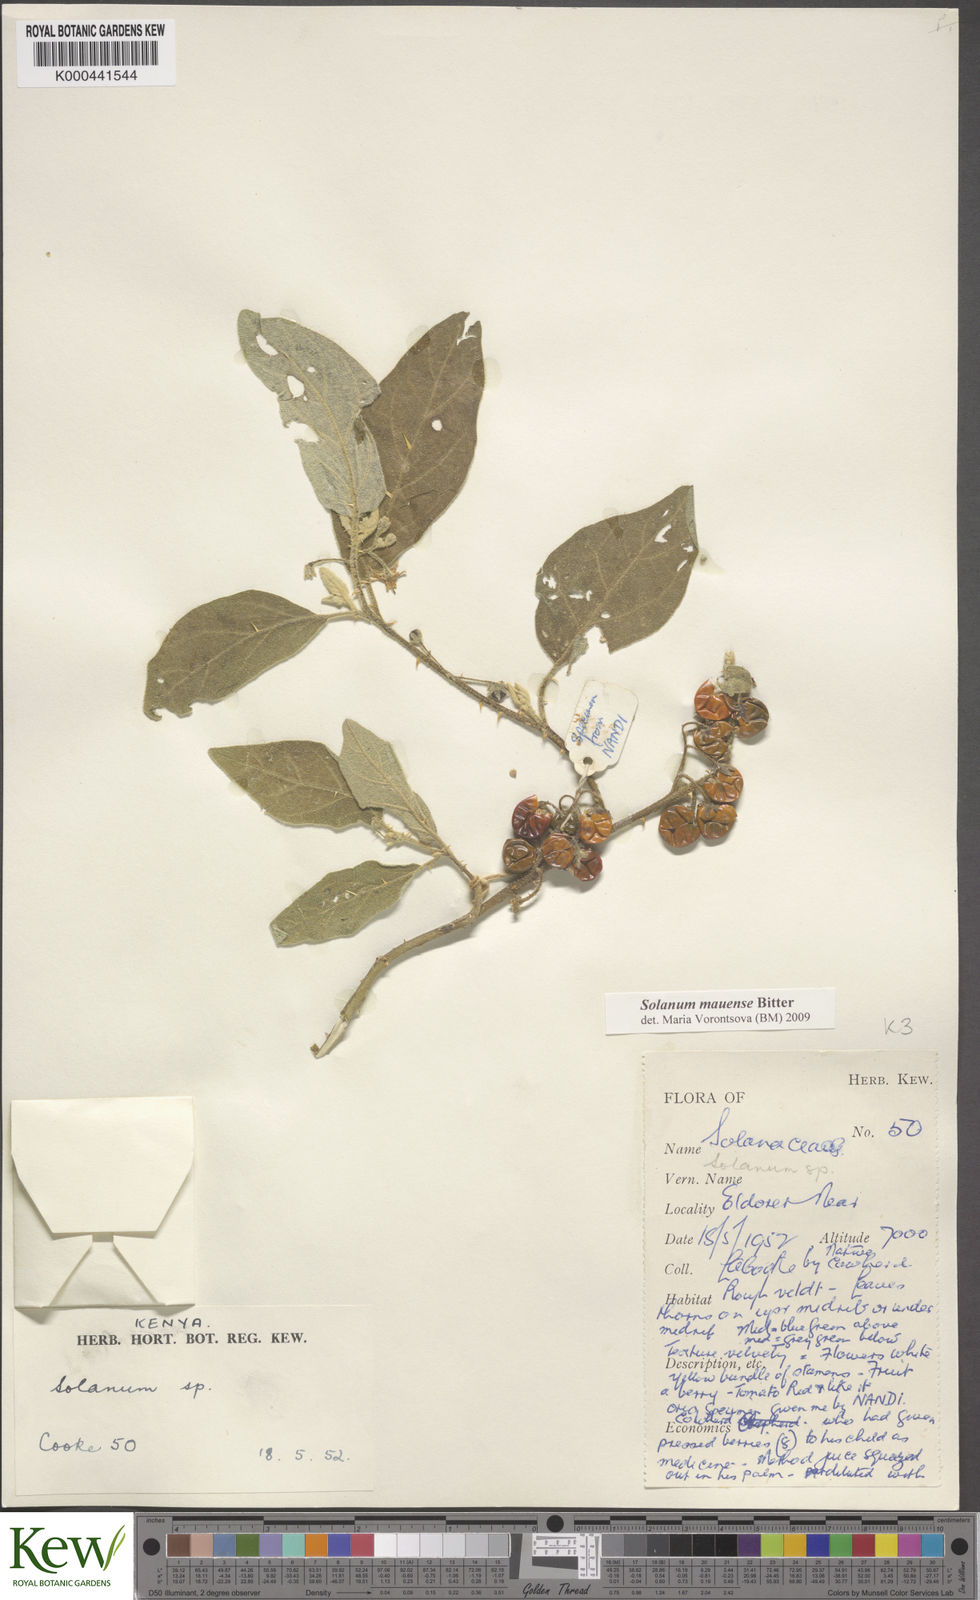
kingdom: Plantae
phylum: Tracheophyta
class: Magnoliopsida
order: Solanales
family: Solanaceae
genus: Solanum
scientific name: Solanum mauense
